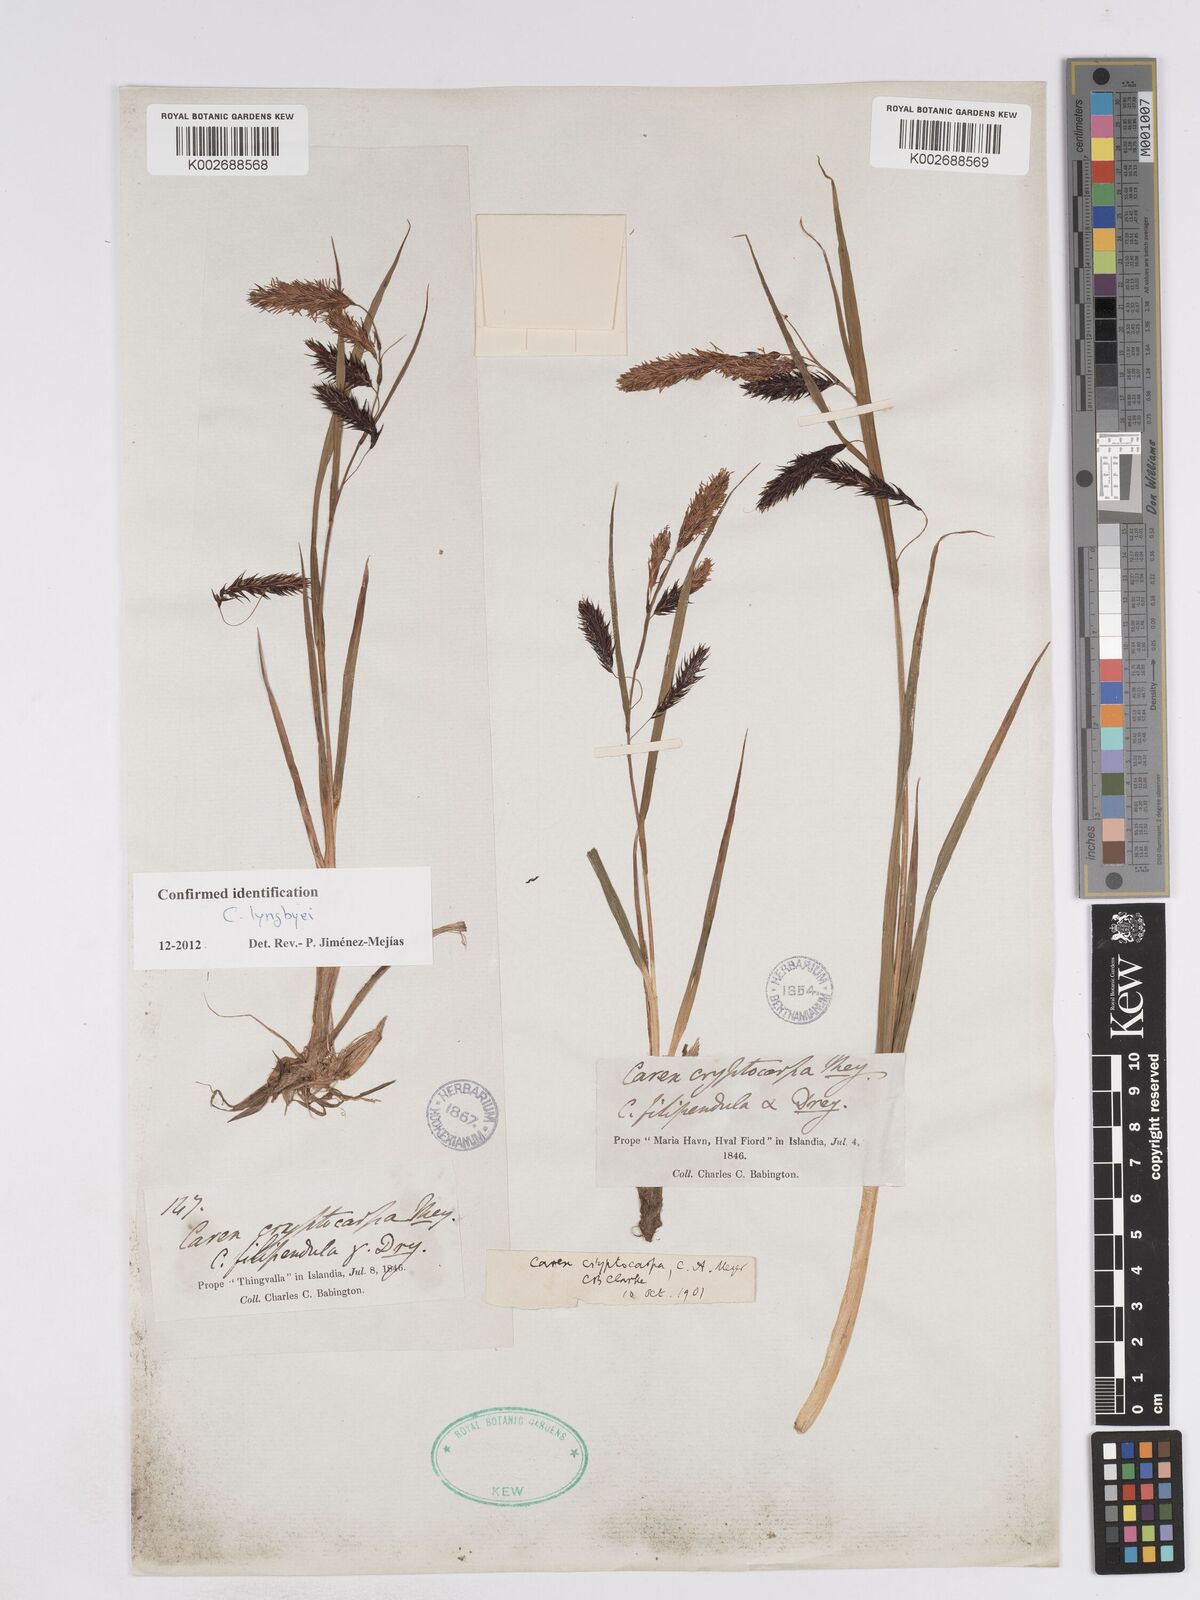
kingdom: Plantae
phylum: Tracheophyta
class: Liliopsida
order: Poales
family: Cyperaceae
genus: Carex
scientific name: Carex lyngbyei
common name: Lyngbye's sedge
